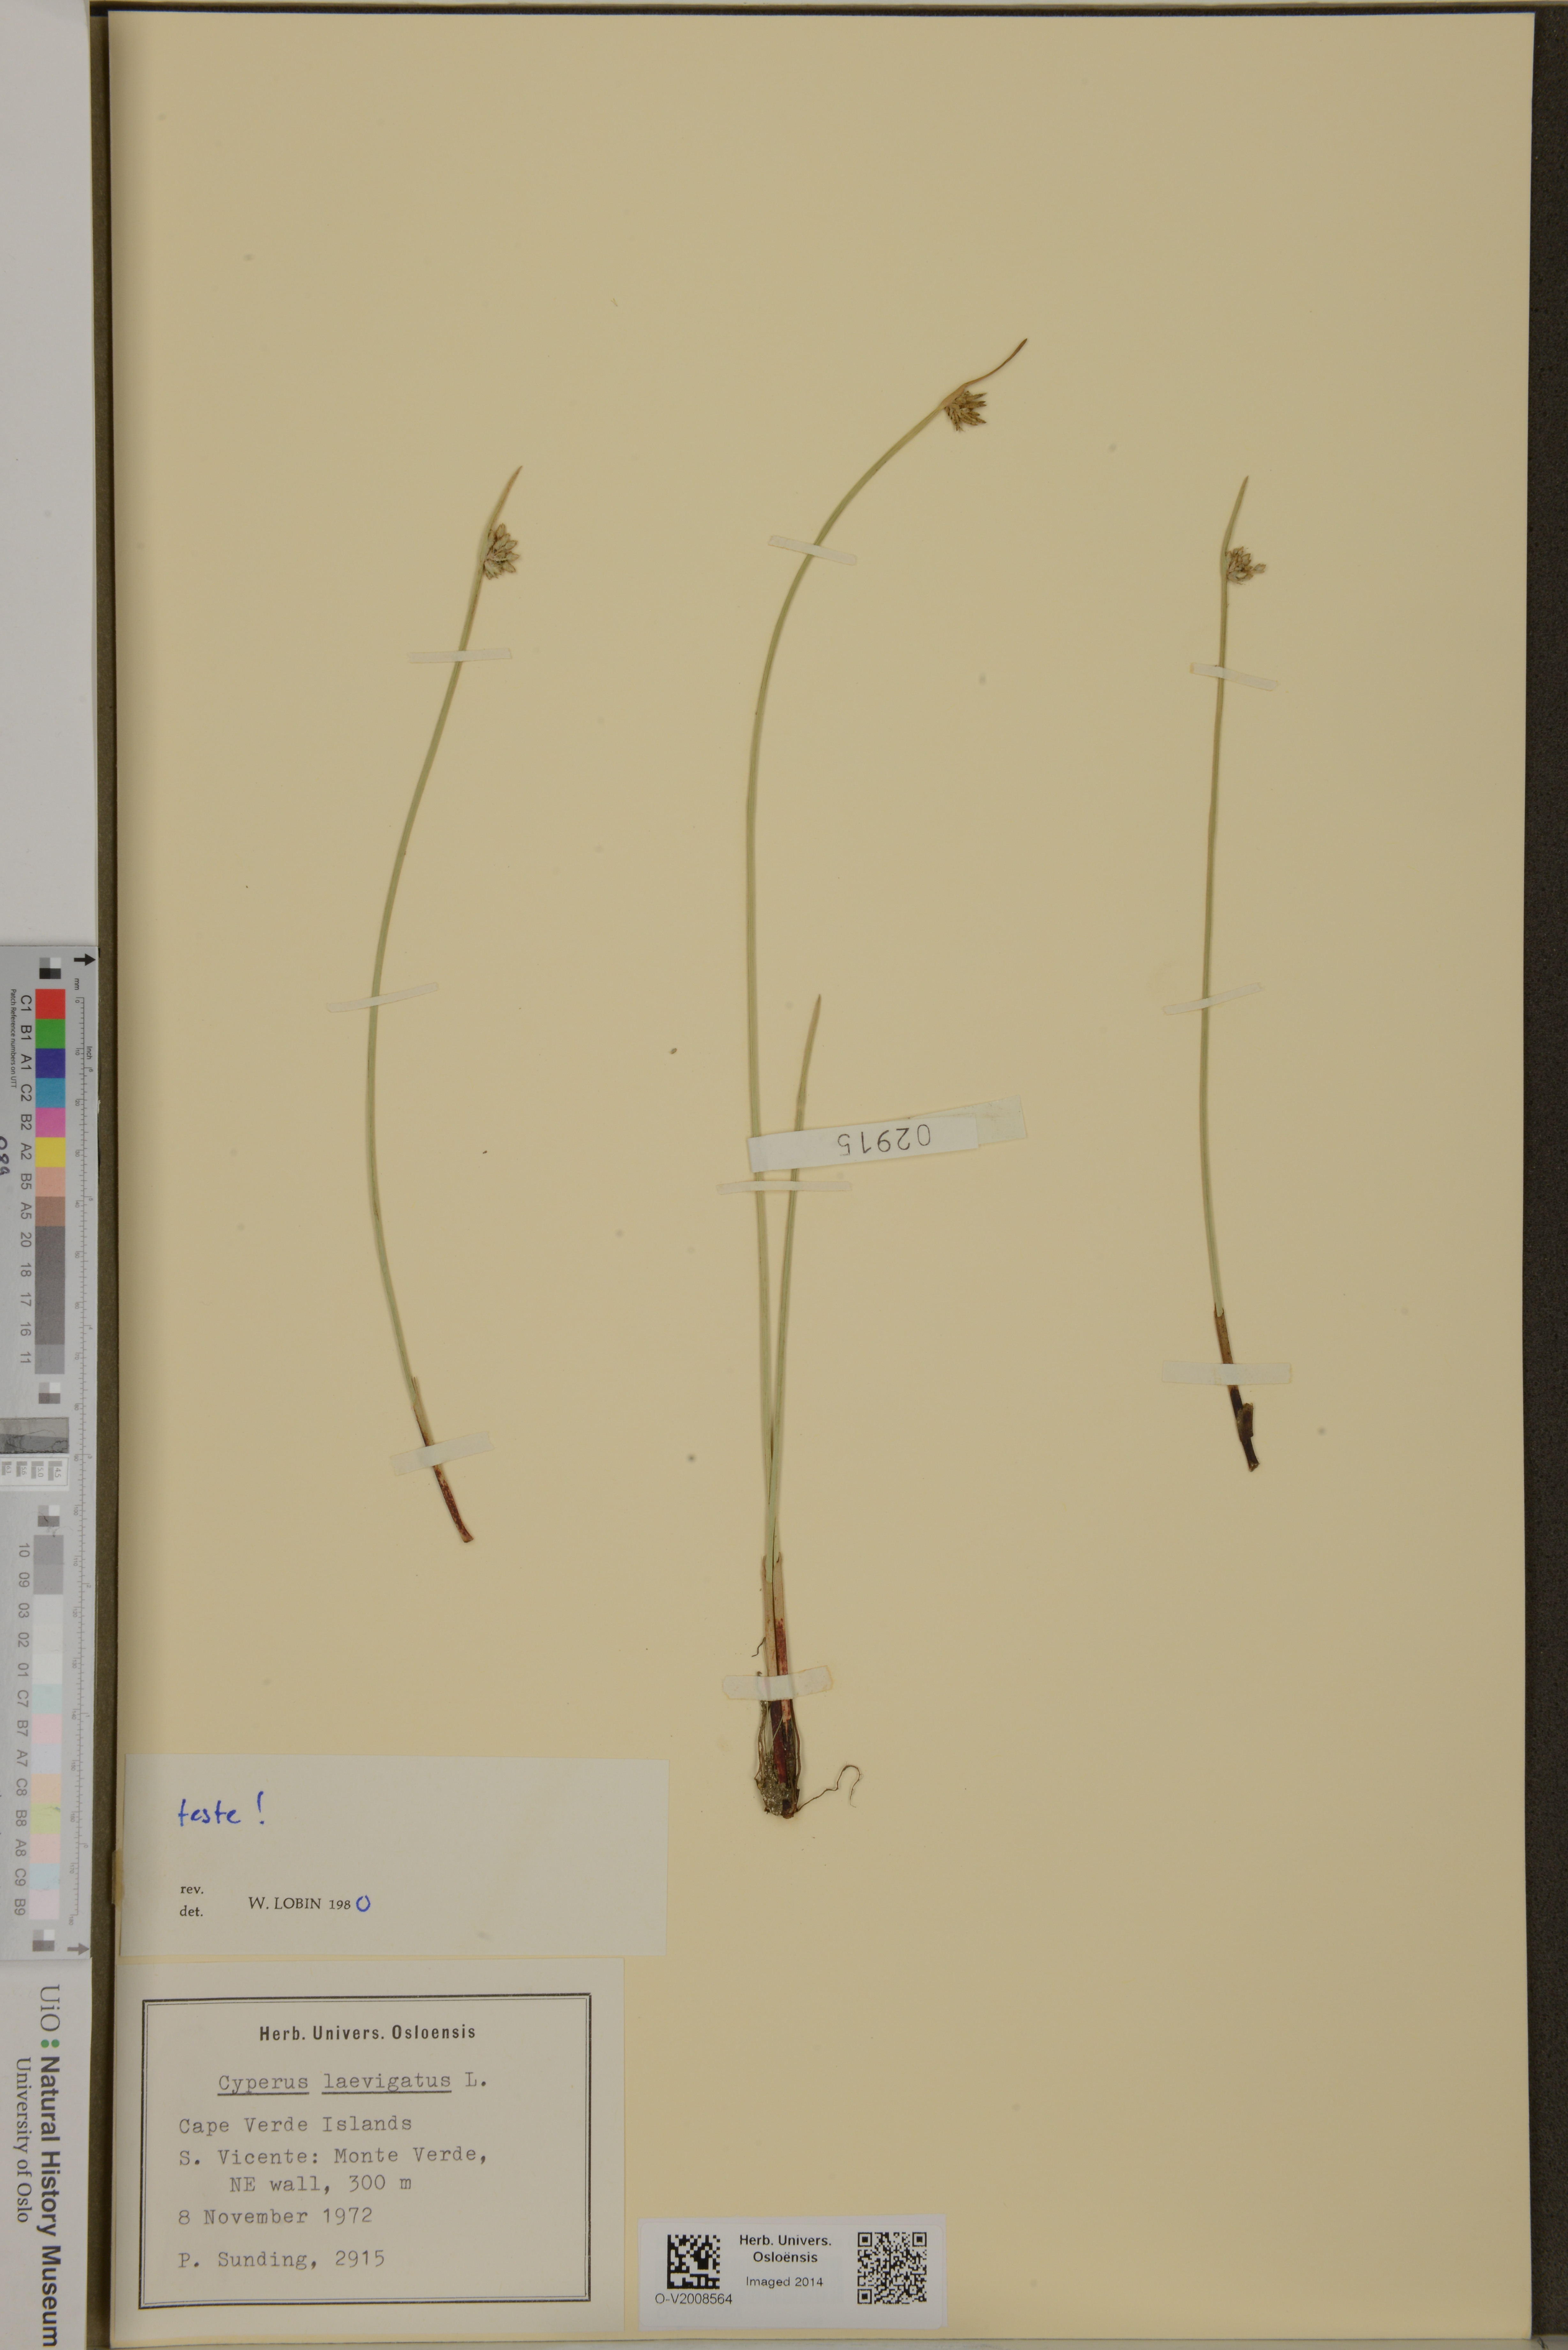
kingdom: Plantae
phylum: Tracheophyta
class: Liliopsida
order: Poales
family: Cyperaceae
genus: Cyperus
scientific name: Cyperus laevigatus
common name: Smooth flat sedge
